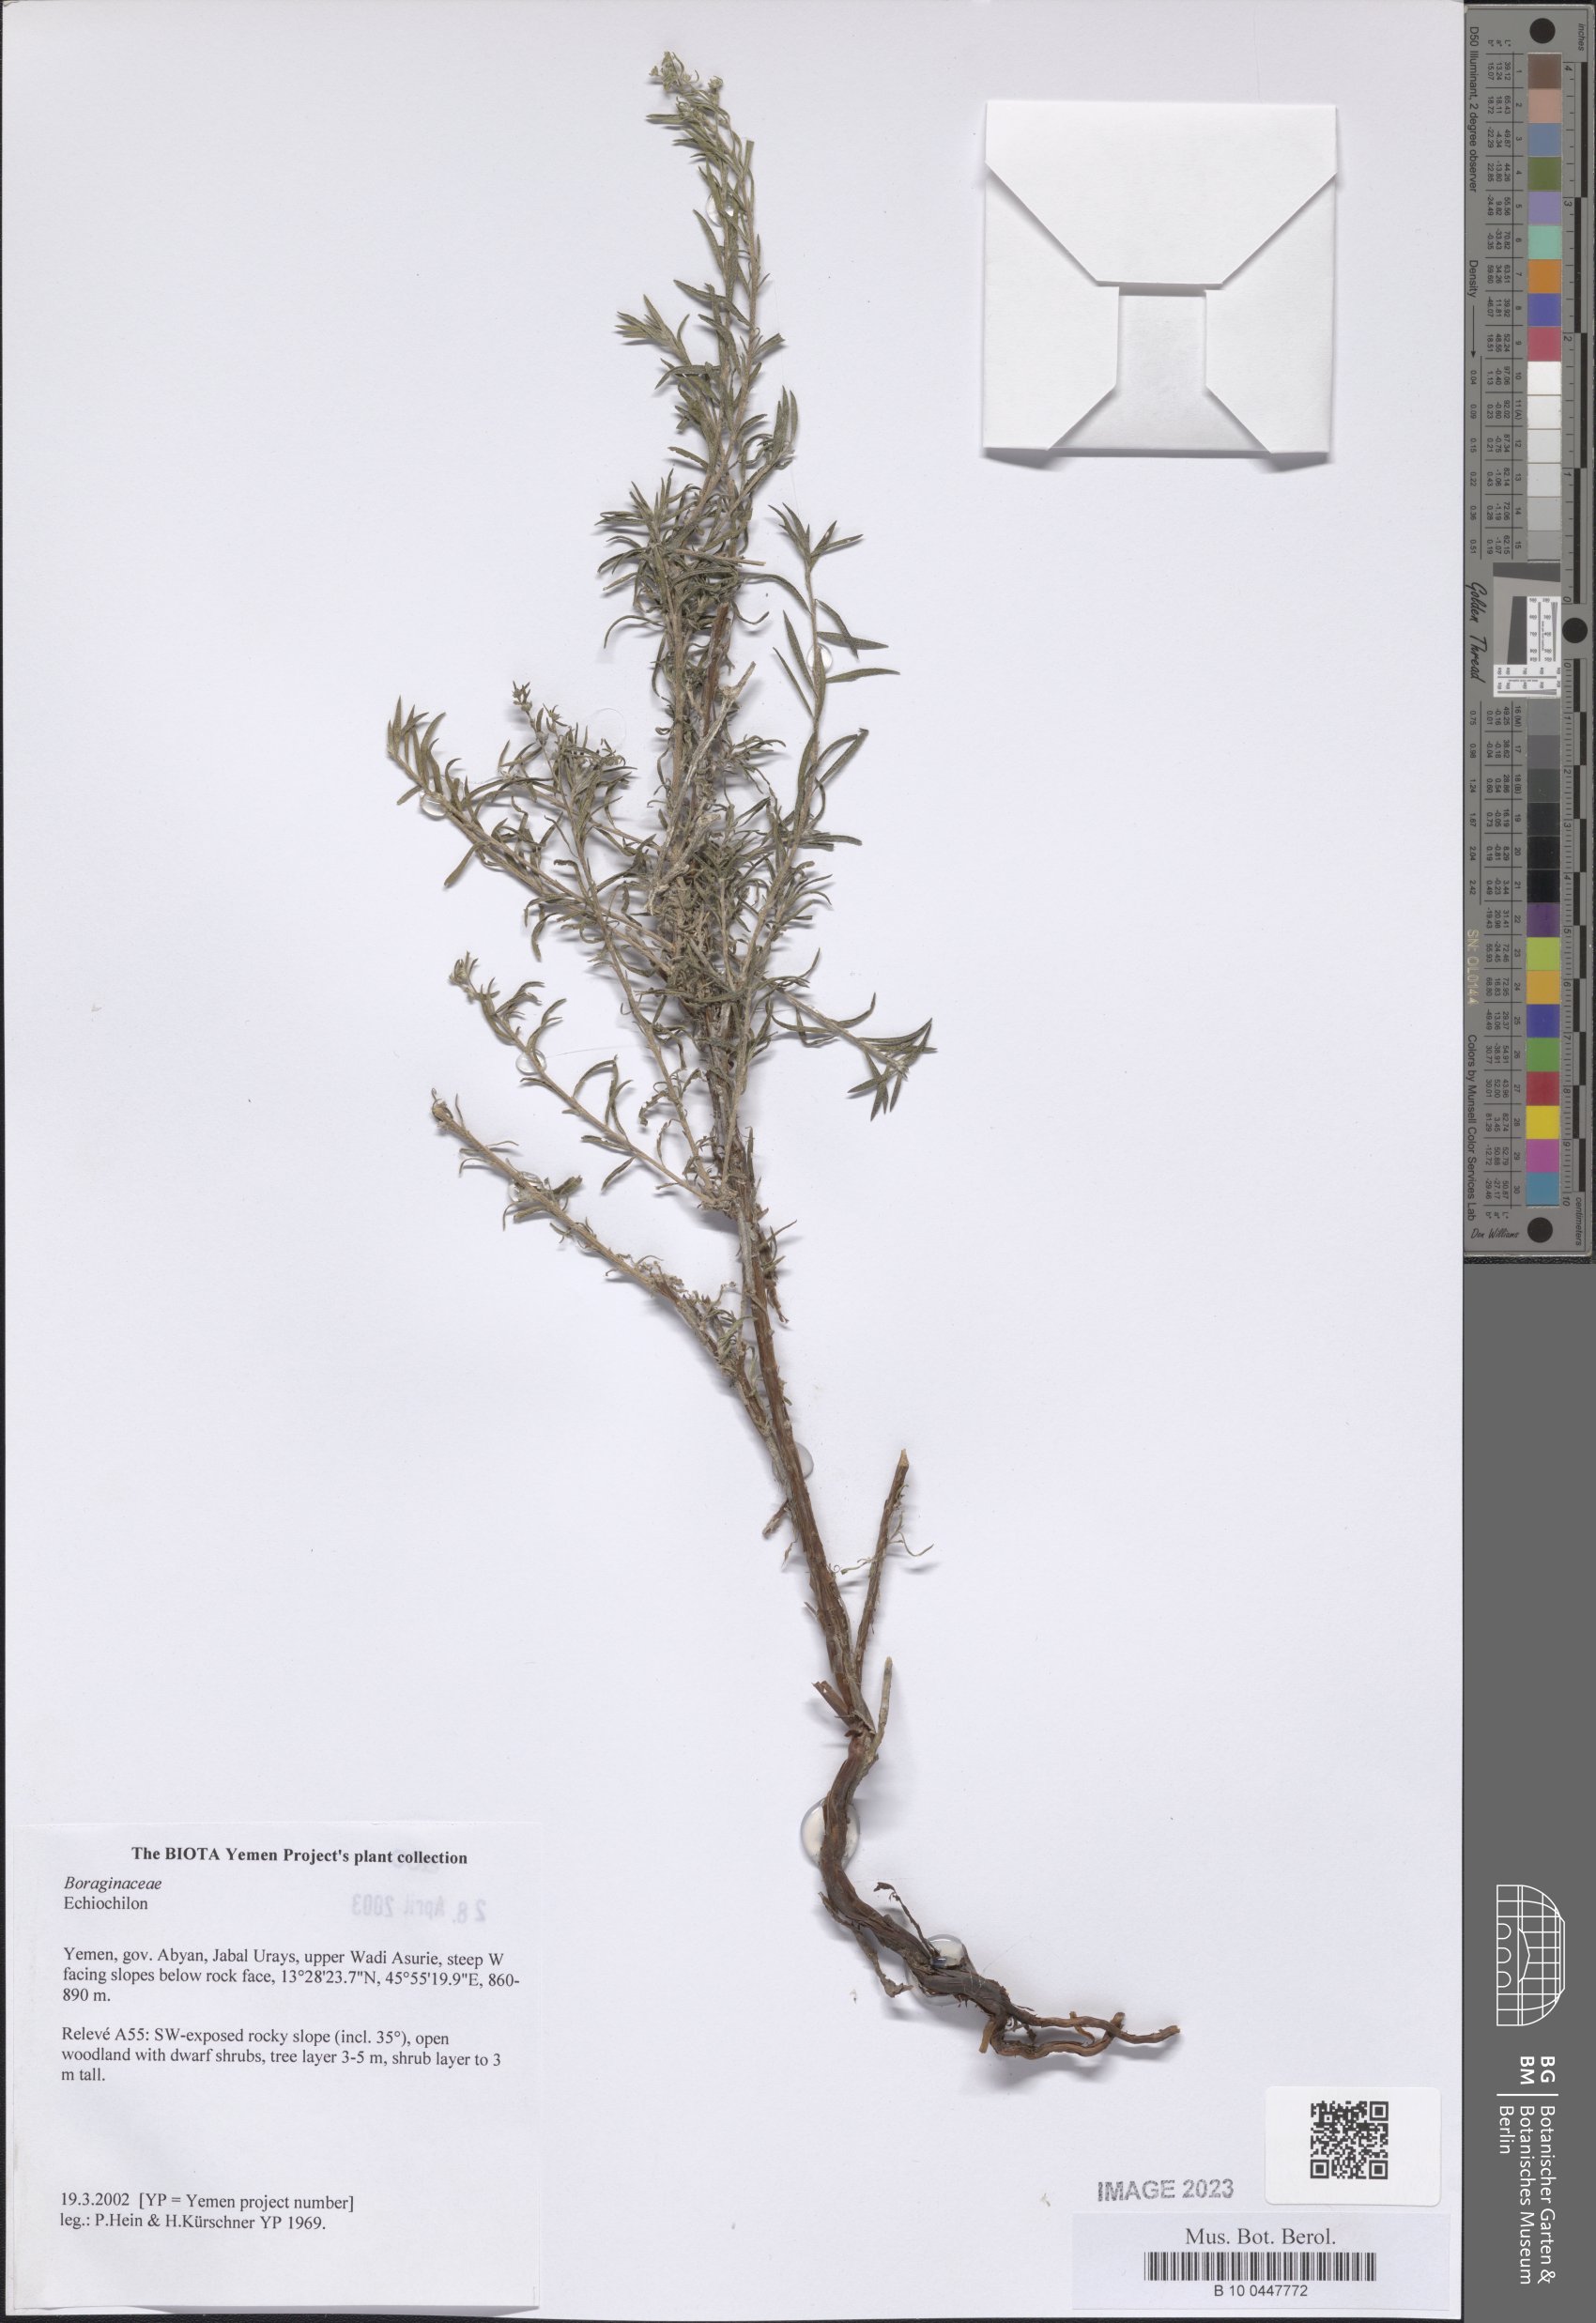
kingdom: Plantae
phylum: Tracheophyta
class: Magnoliopsida
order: Boraginales
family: Boraginaceae
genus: Echiochilon
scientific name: Echiochilon
